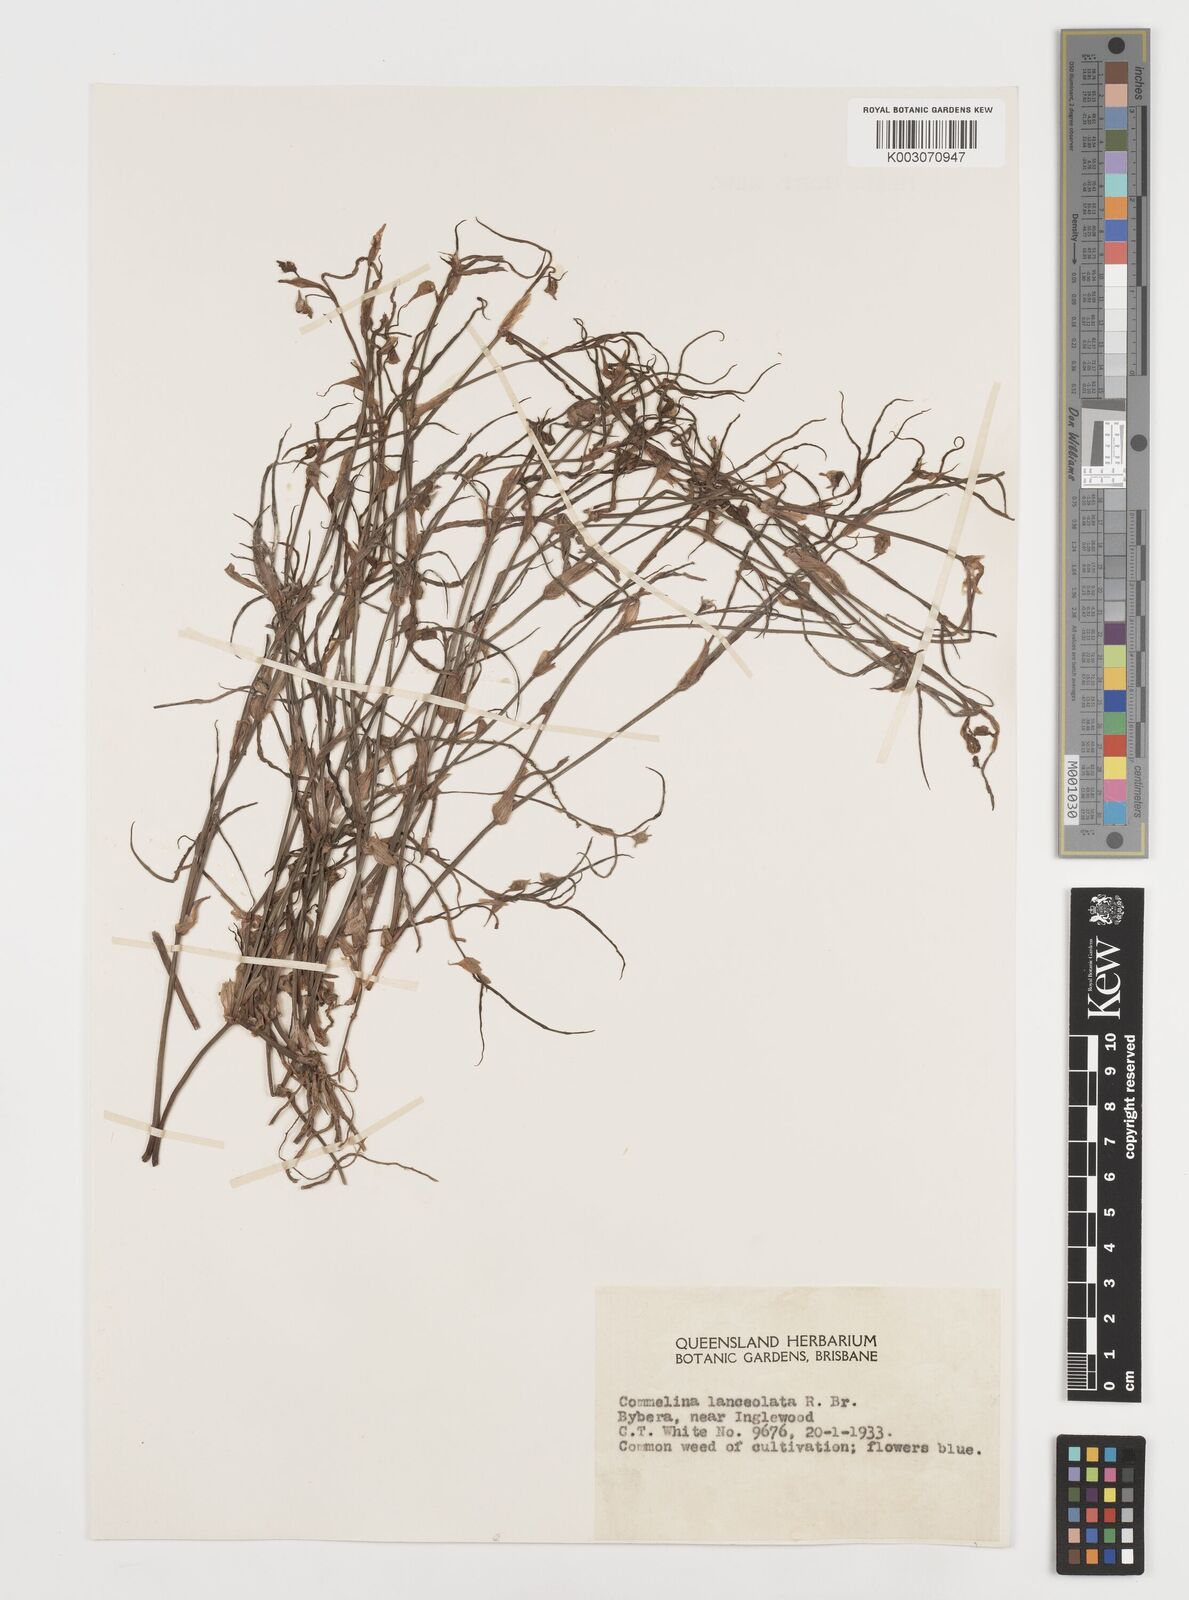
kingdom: Plantae
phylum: Tracheophyta
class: Liliopsida
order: Commelinales
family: Commelinaceae
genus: Commelina
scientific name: Commelina lanceolata
